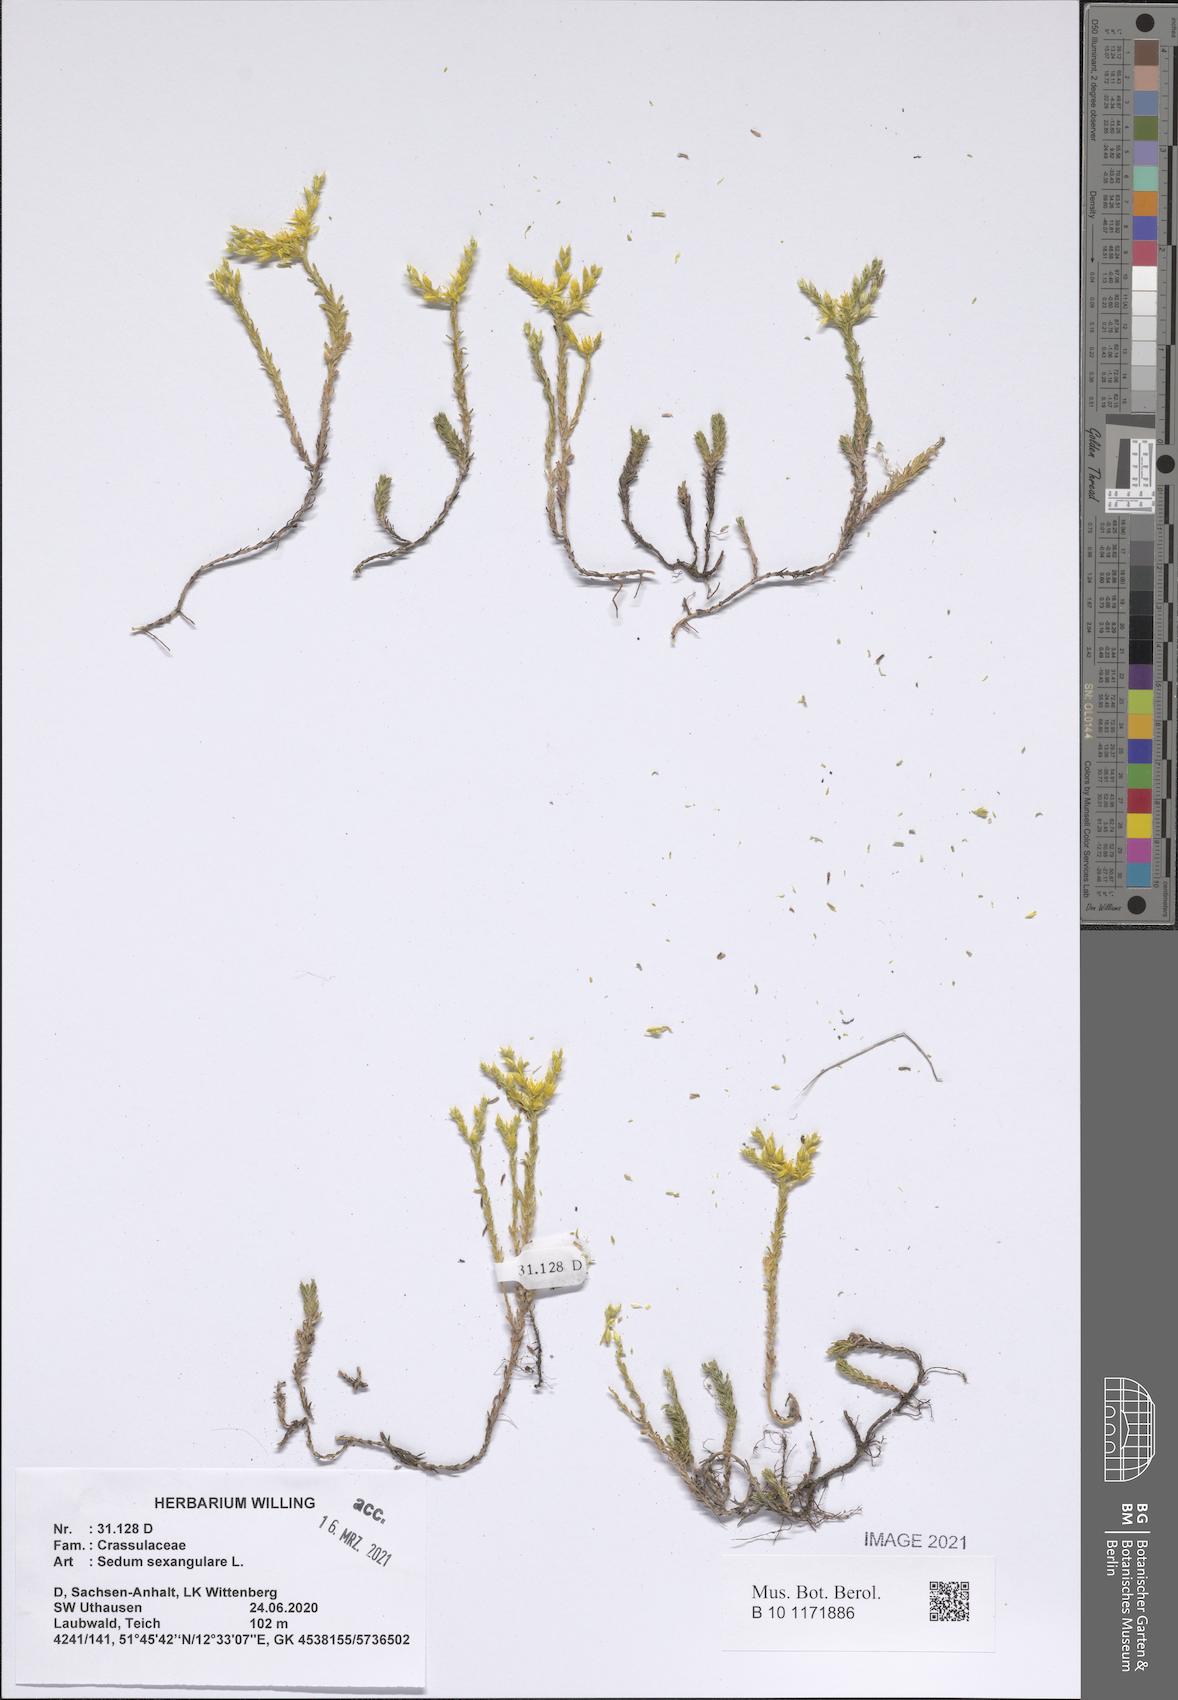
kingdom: Plantae
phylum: Tracheophyta
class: Magnoliopsida
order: Saxifragales
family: Crassulaceae
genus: Sedum
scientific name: Sedum sexangulare
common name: Tasteless stonecrop
